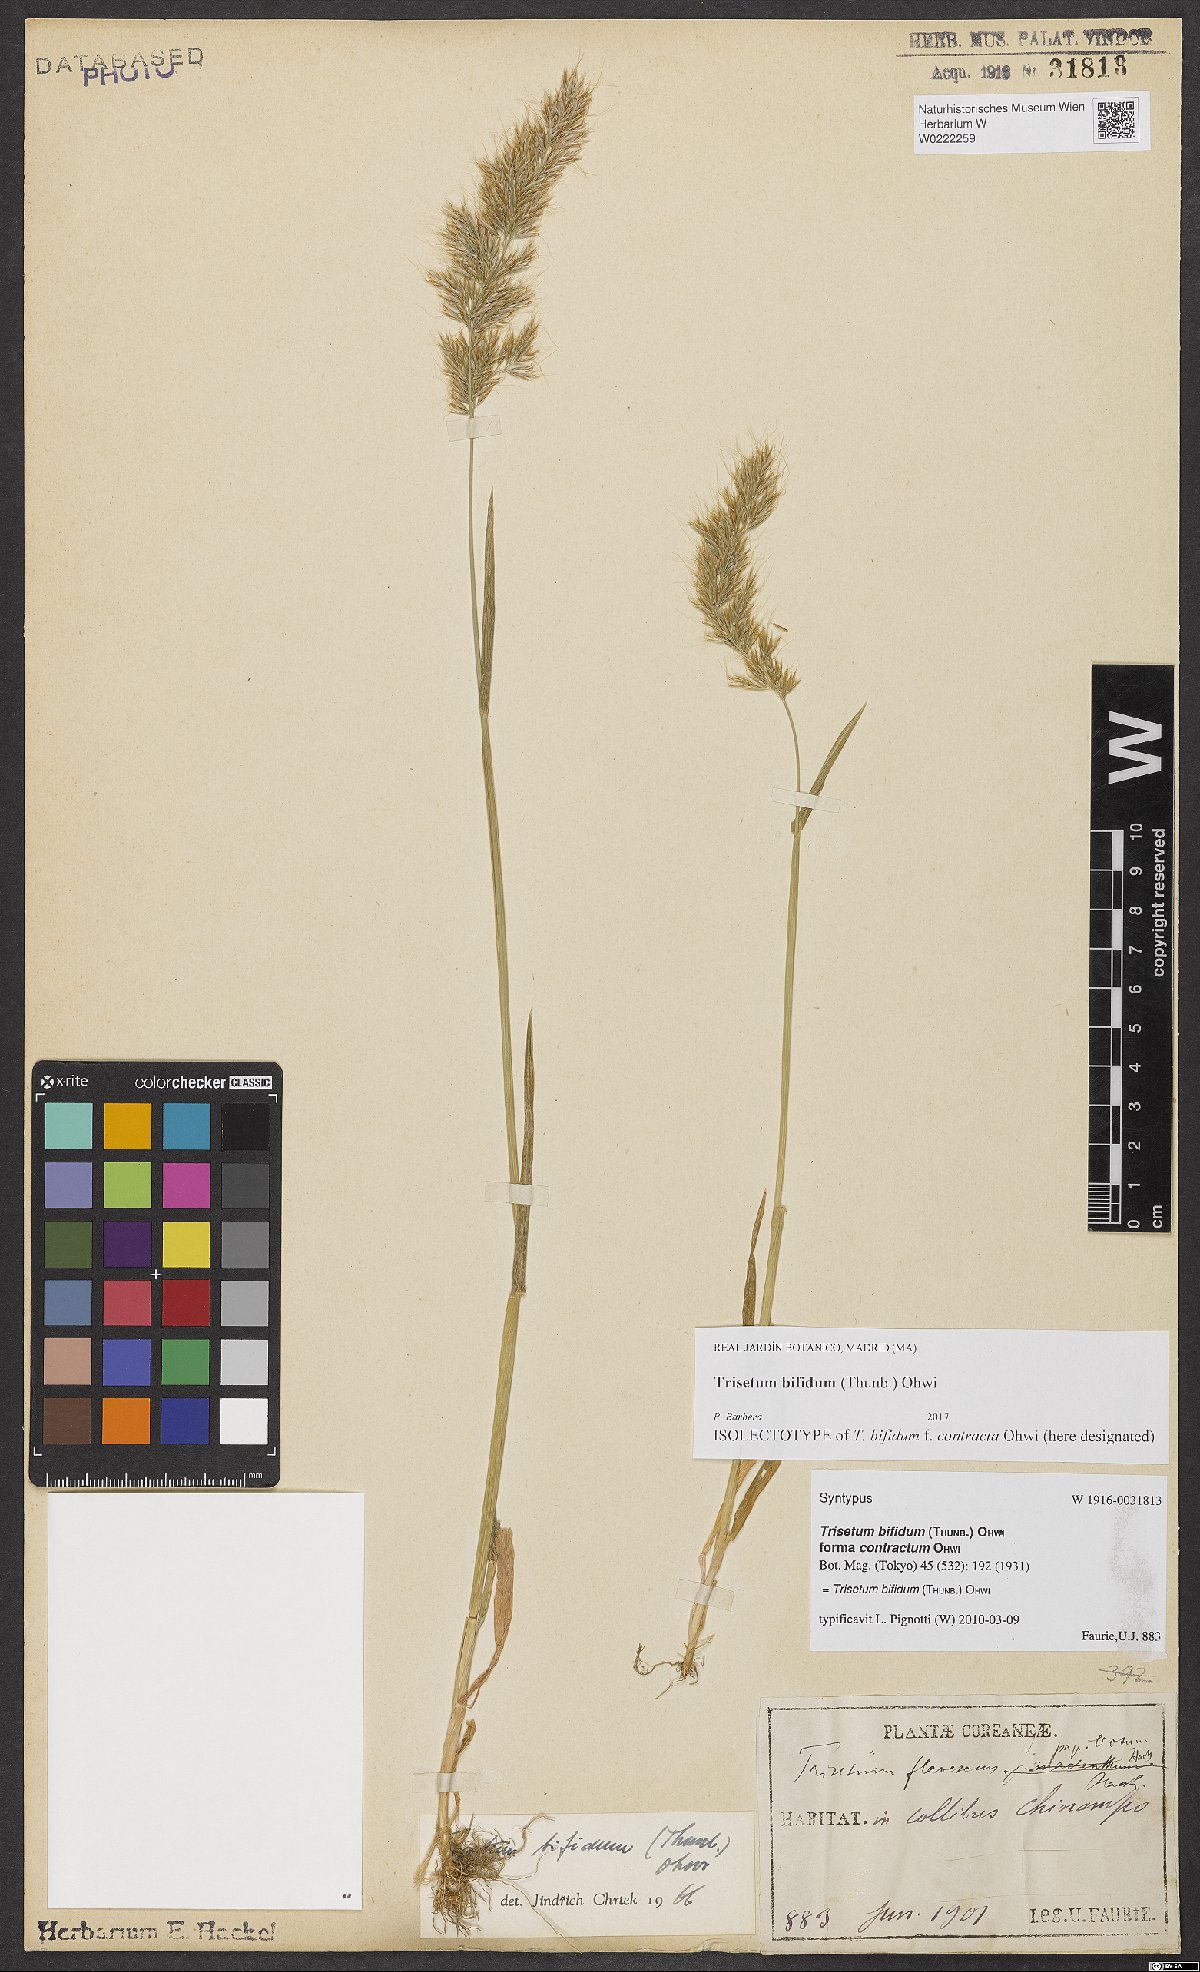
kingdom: Plantae
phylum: Tracheophyta
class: Liliopsida
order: Poales
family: Poaceae
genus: Sibirotrisetum
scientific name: Sibirotrisetum bifidum
